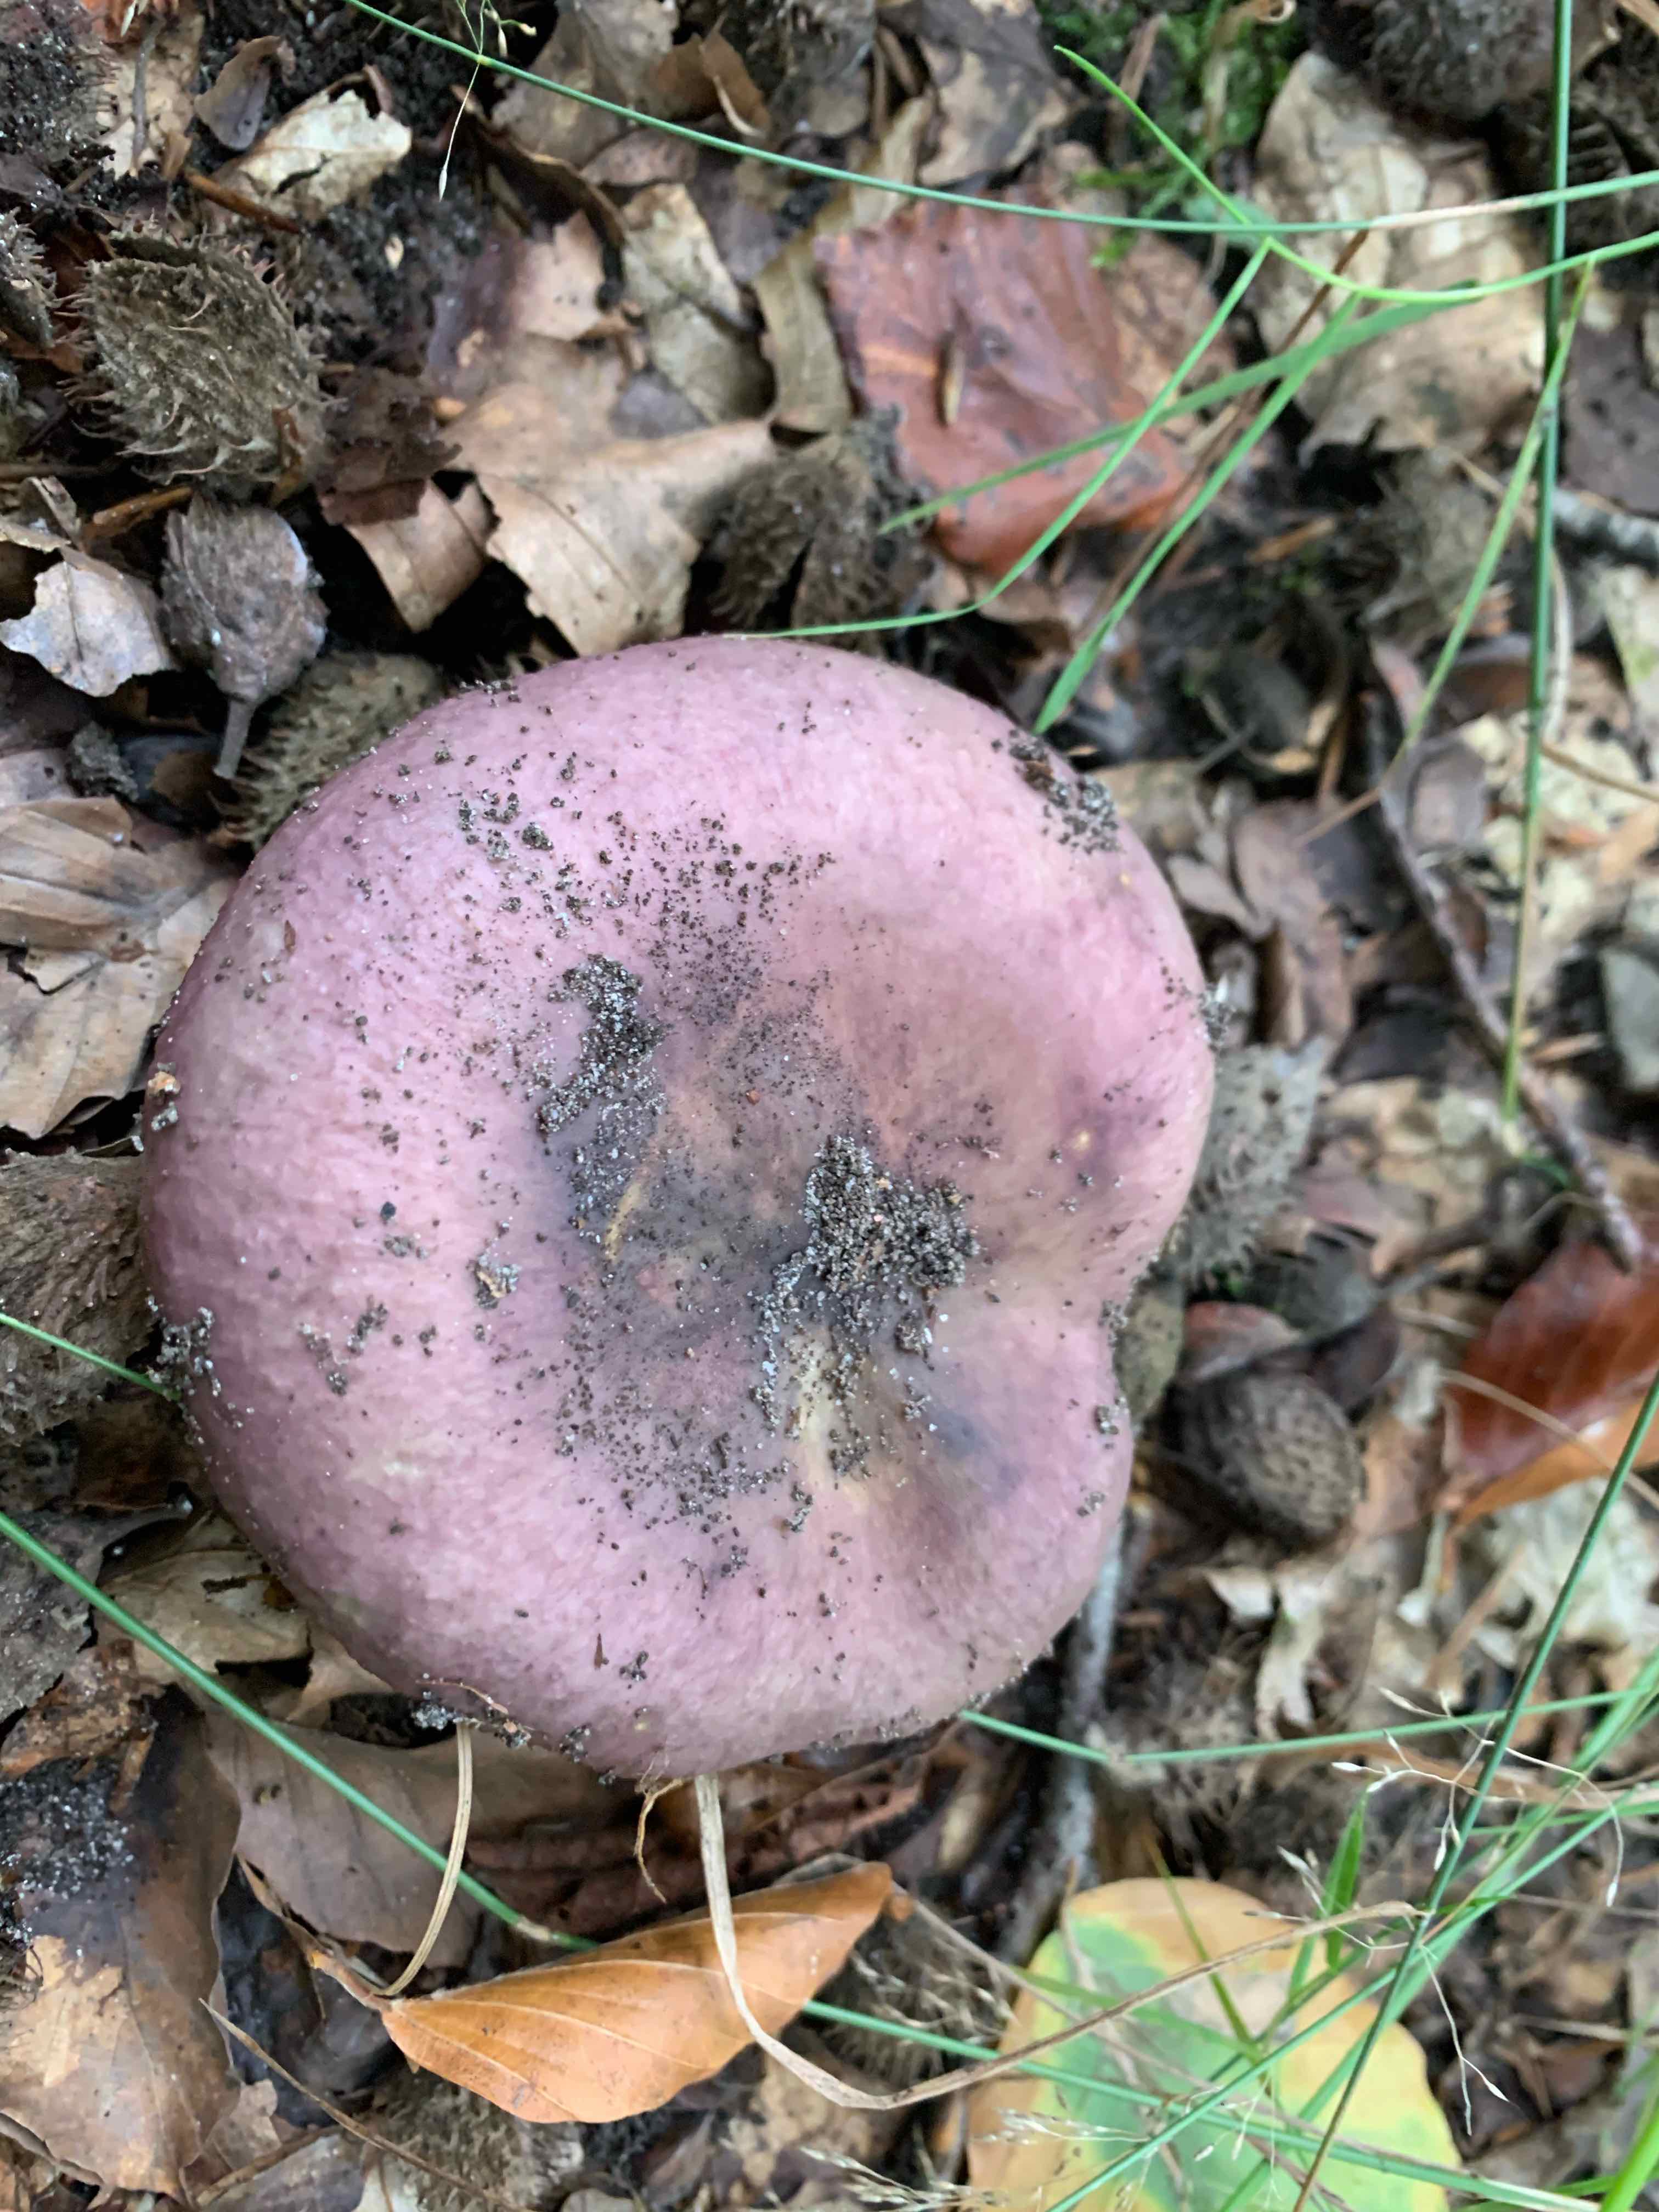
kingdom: Fungi
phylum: Basidiomycota
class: Agaricomycetes
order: Russulales
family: Russulaceae
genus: Russula
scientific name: Russula
